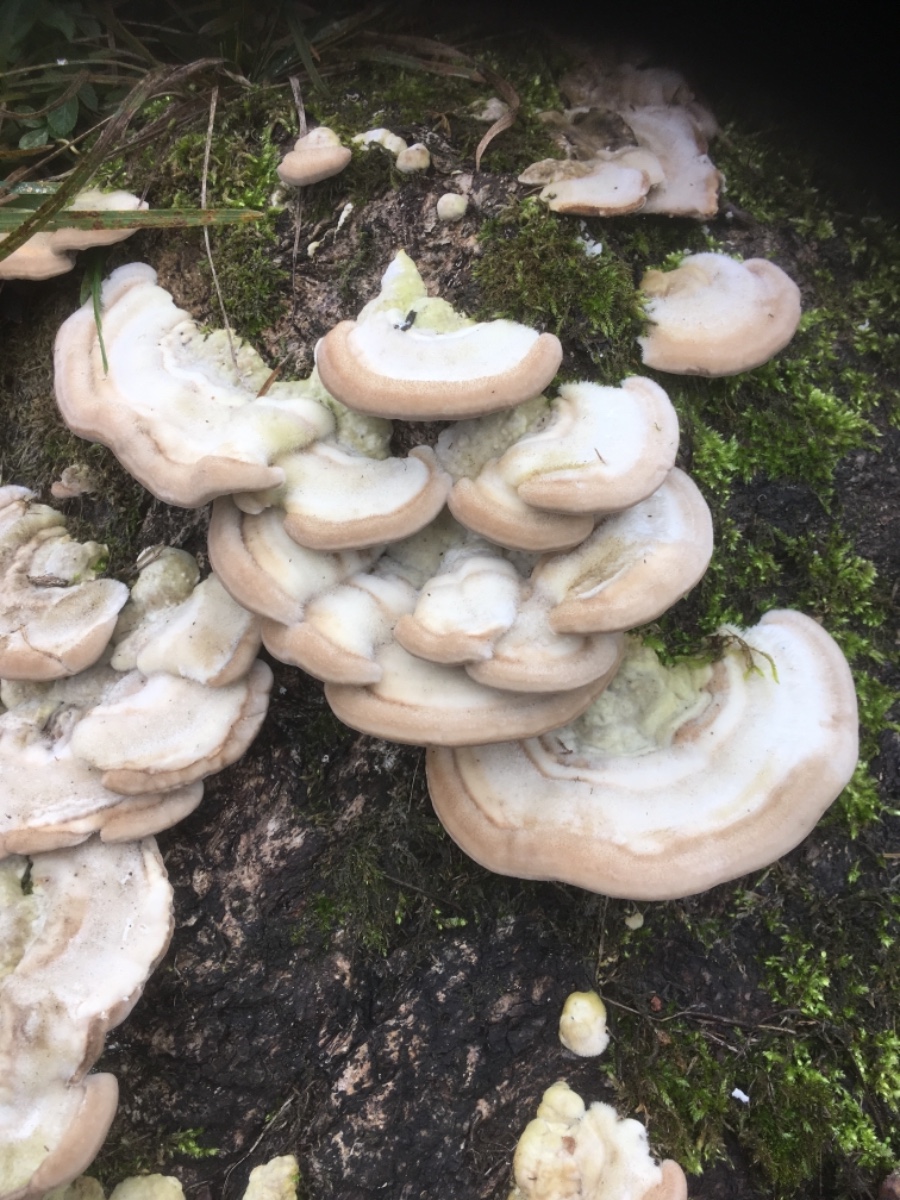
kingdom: Fungi
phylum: Basidiomycota
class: Agaricomycetes
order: Polyporales
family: Polyporaceae
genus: Trametes
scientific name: Trametes hirsuta
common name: håret læderporesvamp
